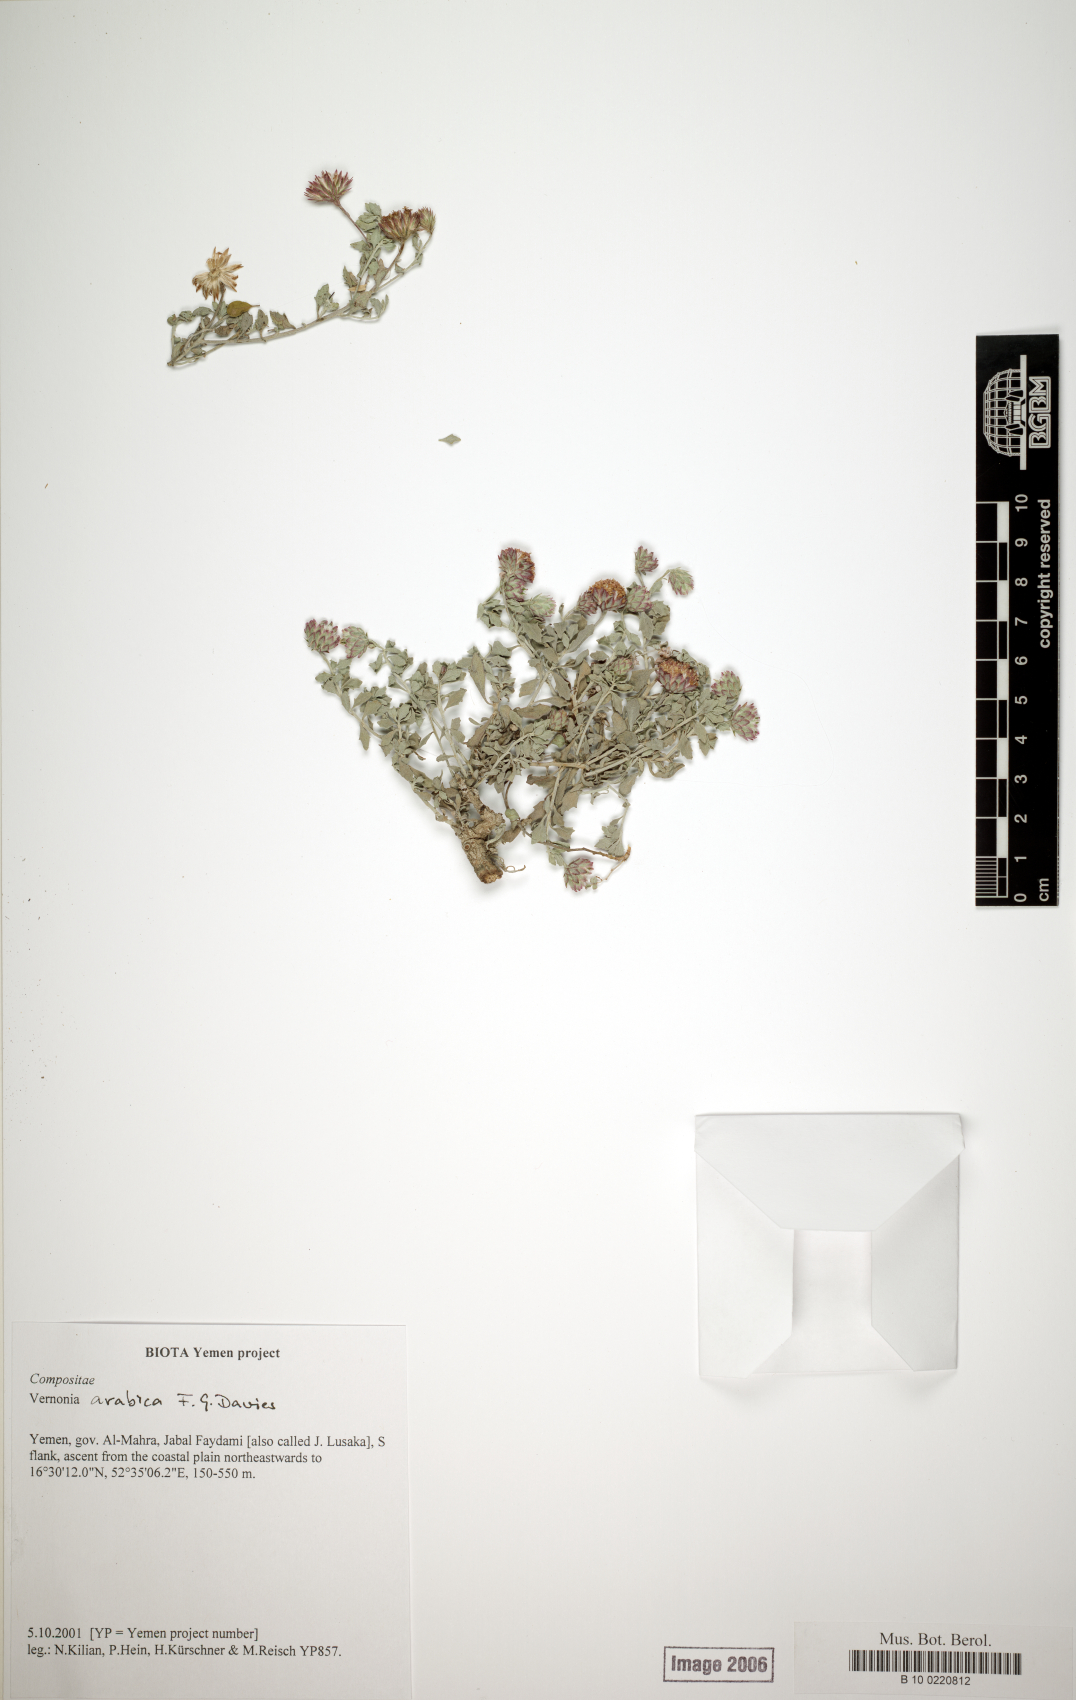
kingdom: Plantae
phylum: Tracheophyta
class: Magnoliopsida
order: Asterales
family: Asteraceae
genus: Vernonia
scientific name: Vernonia arabica
